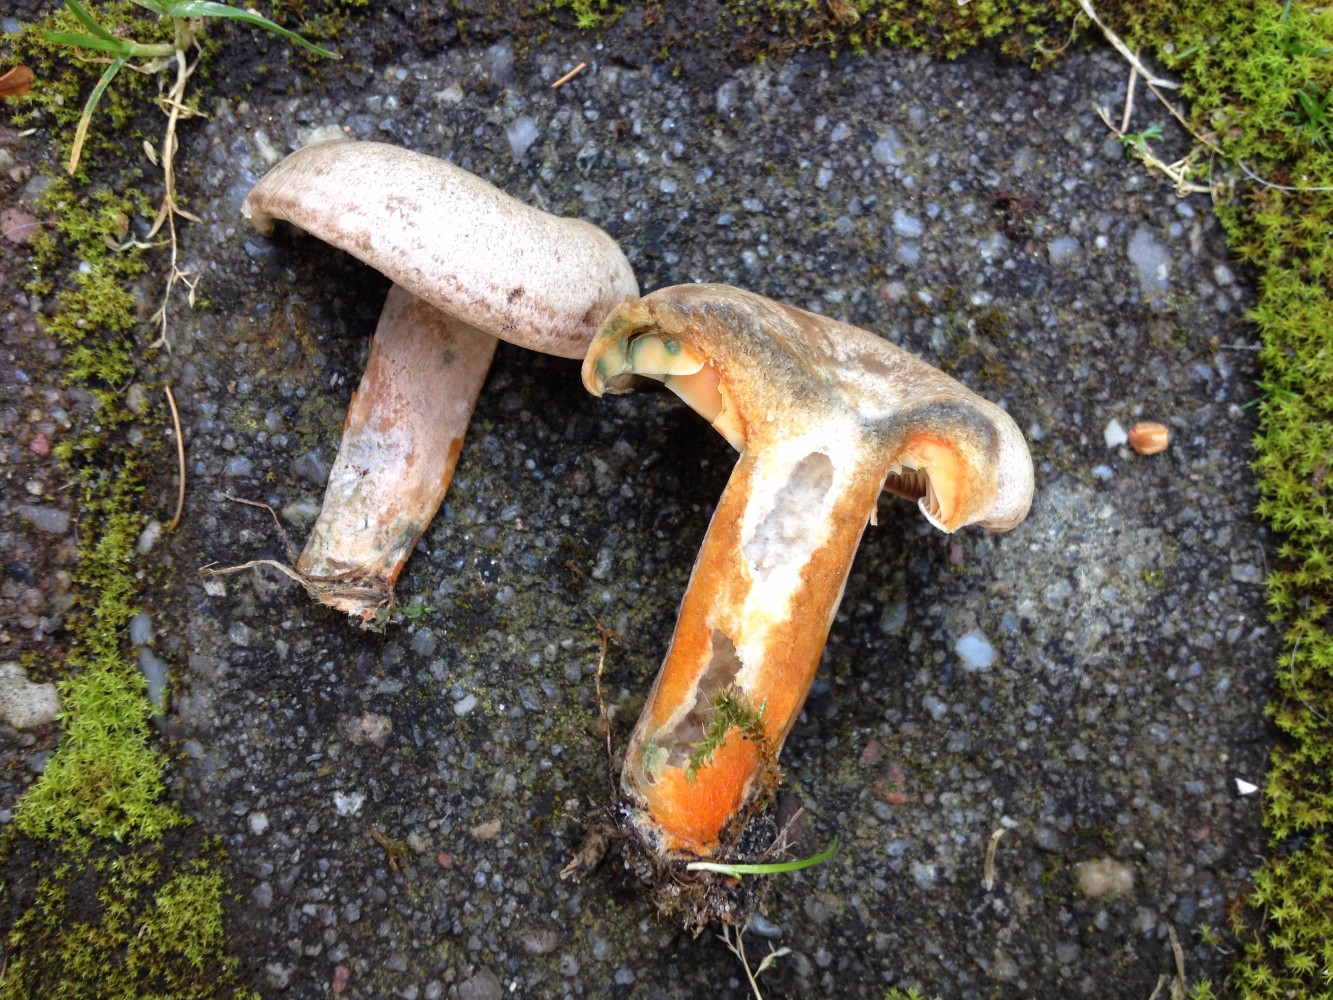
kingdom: Fungi
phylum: Basidiomycota
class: Agaricomycetes
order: Russulales
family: Russulaceae
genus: Lactarius
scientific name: Lactarius quieticolor
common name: tvefarvet mælkehat
